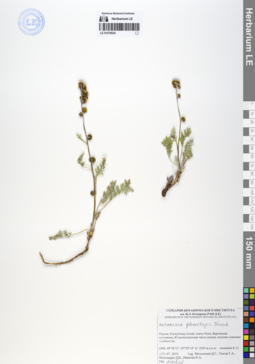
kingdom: Plantae
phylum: Tracheophyta
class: Magnoliopsida
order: Asterales
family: Asteraceae
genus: Artemisia
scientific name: Artemisia phaeolepis
